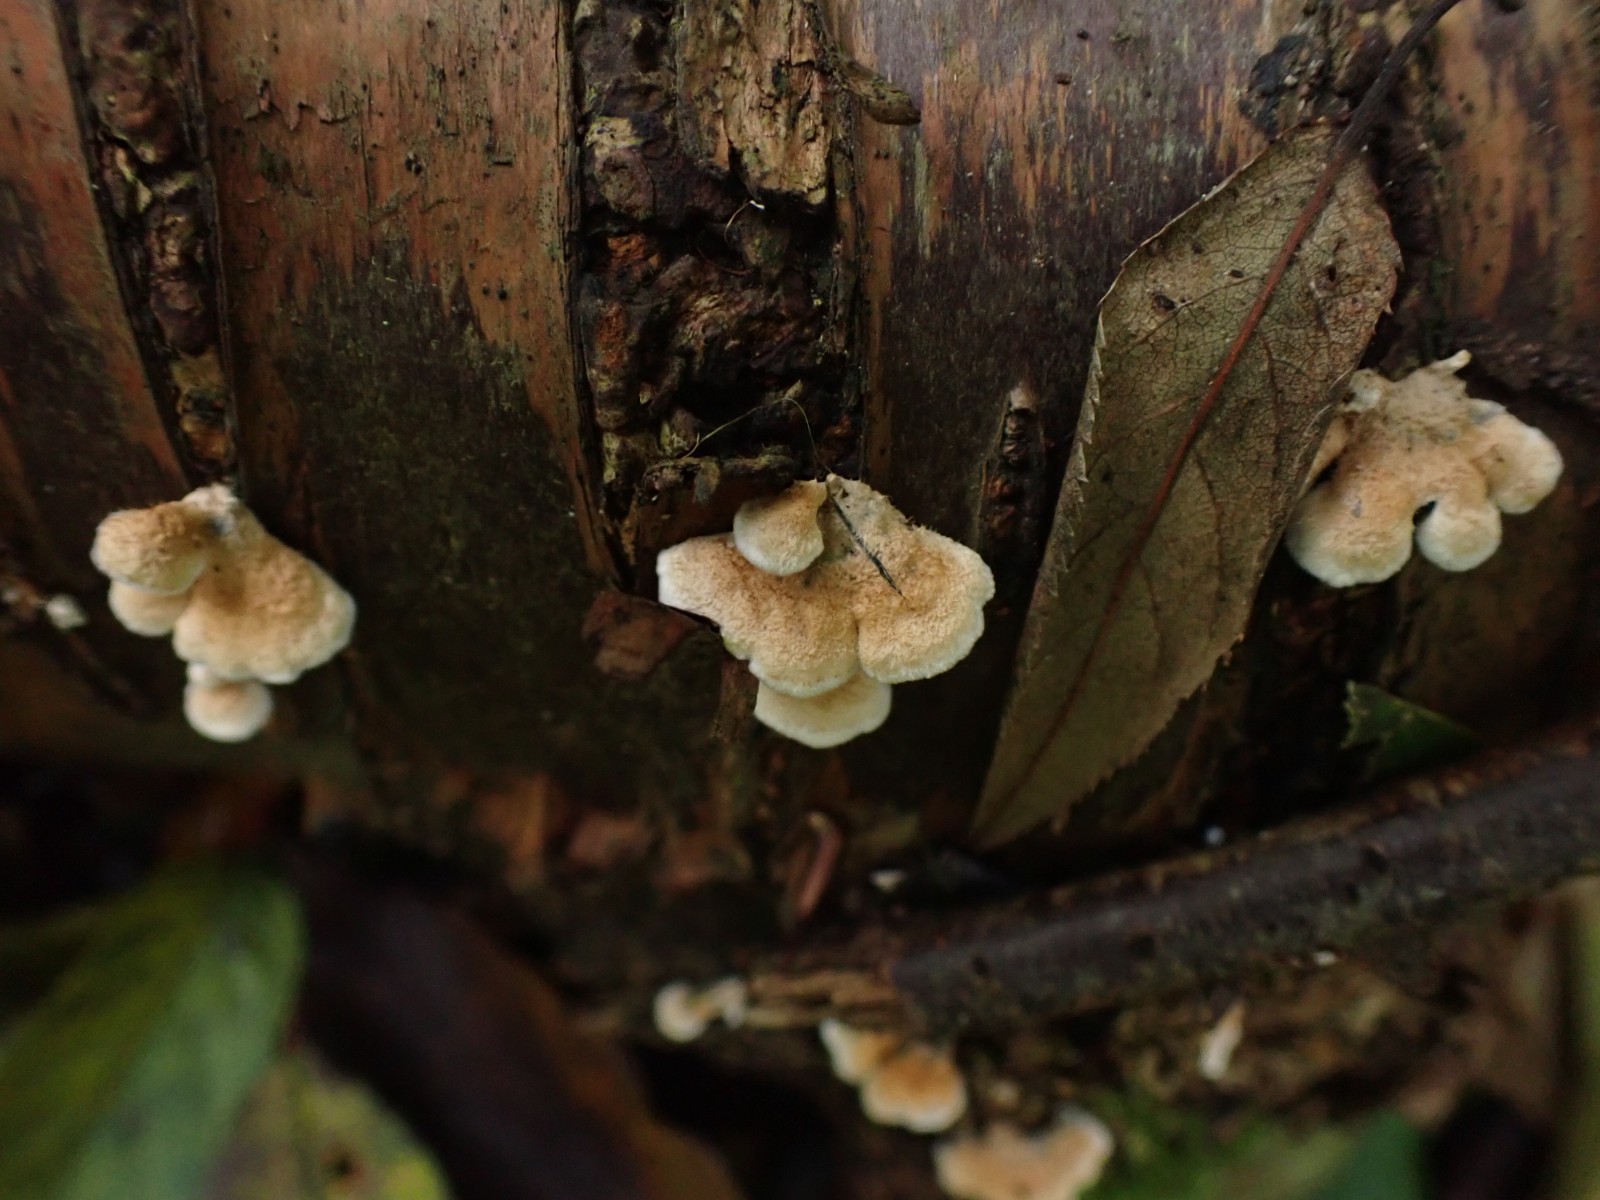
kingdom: Fungi
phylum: Basidiomycota
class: Agaricomycetes
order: Amylocorticiales
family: Amylocorticiaceae
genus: Plicaturopsis
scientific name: Plicaturopsis crispa
